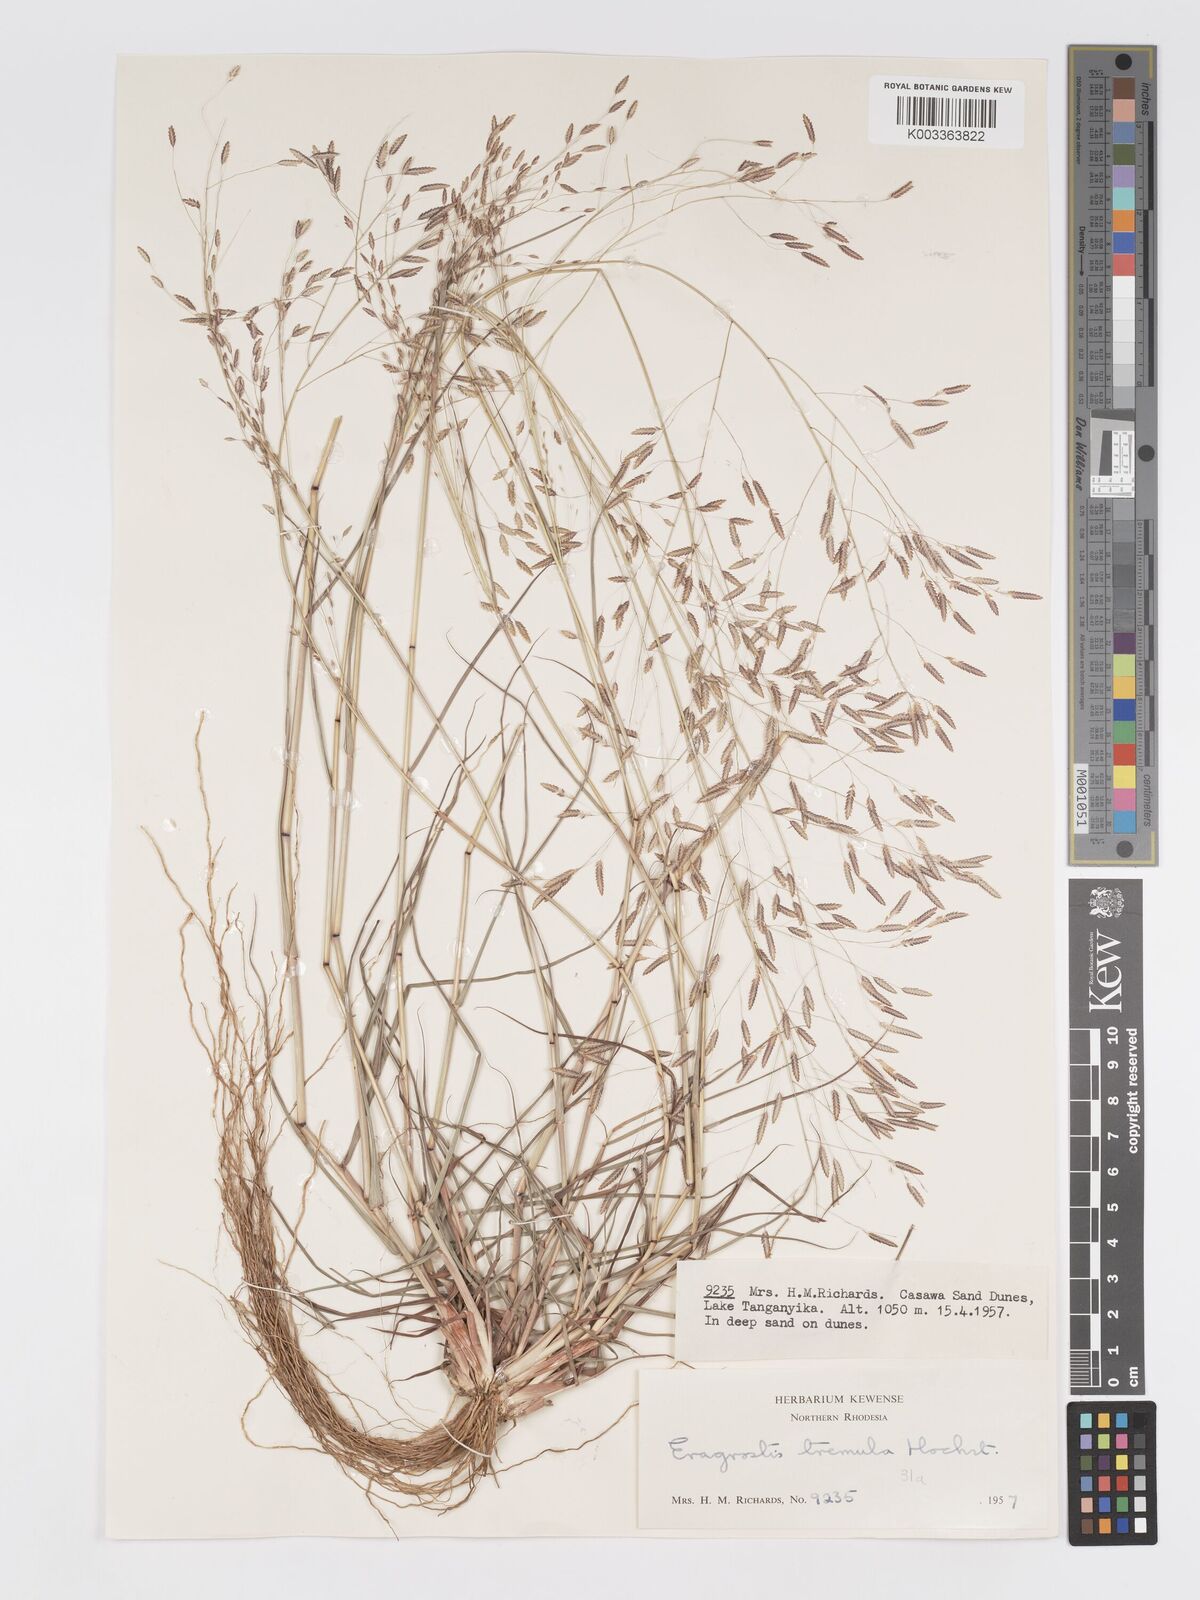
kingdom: Plantae
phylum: Tracheophyta
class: Liliopsida
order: Poales
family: Poaceae
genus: Eragrostis
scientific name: Eragrostis tremula
